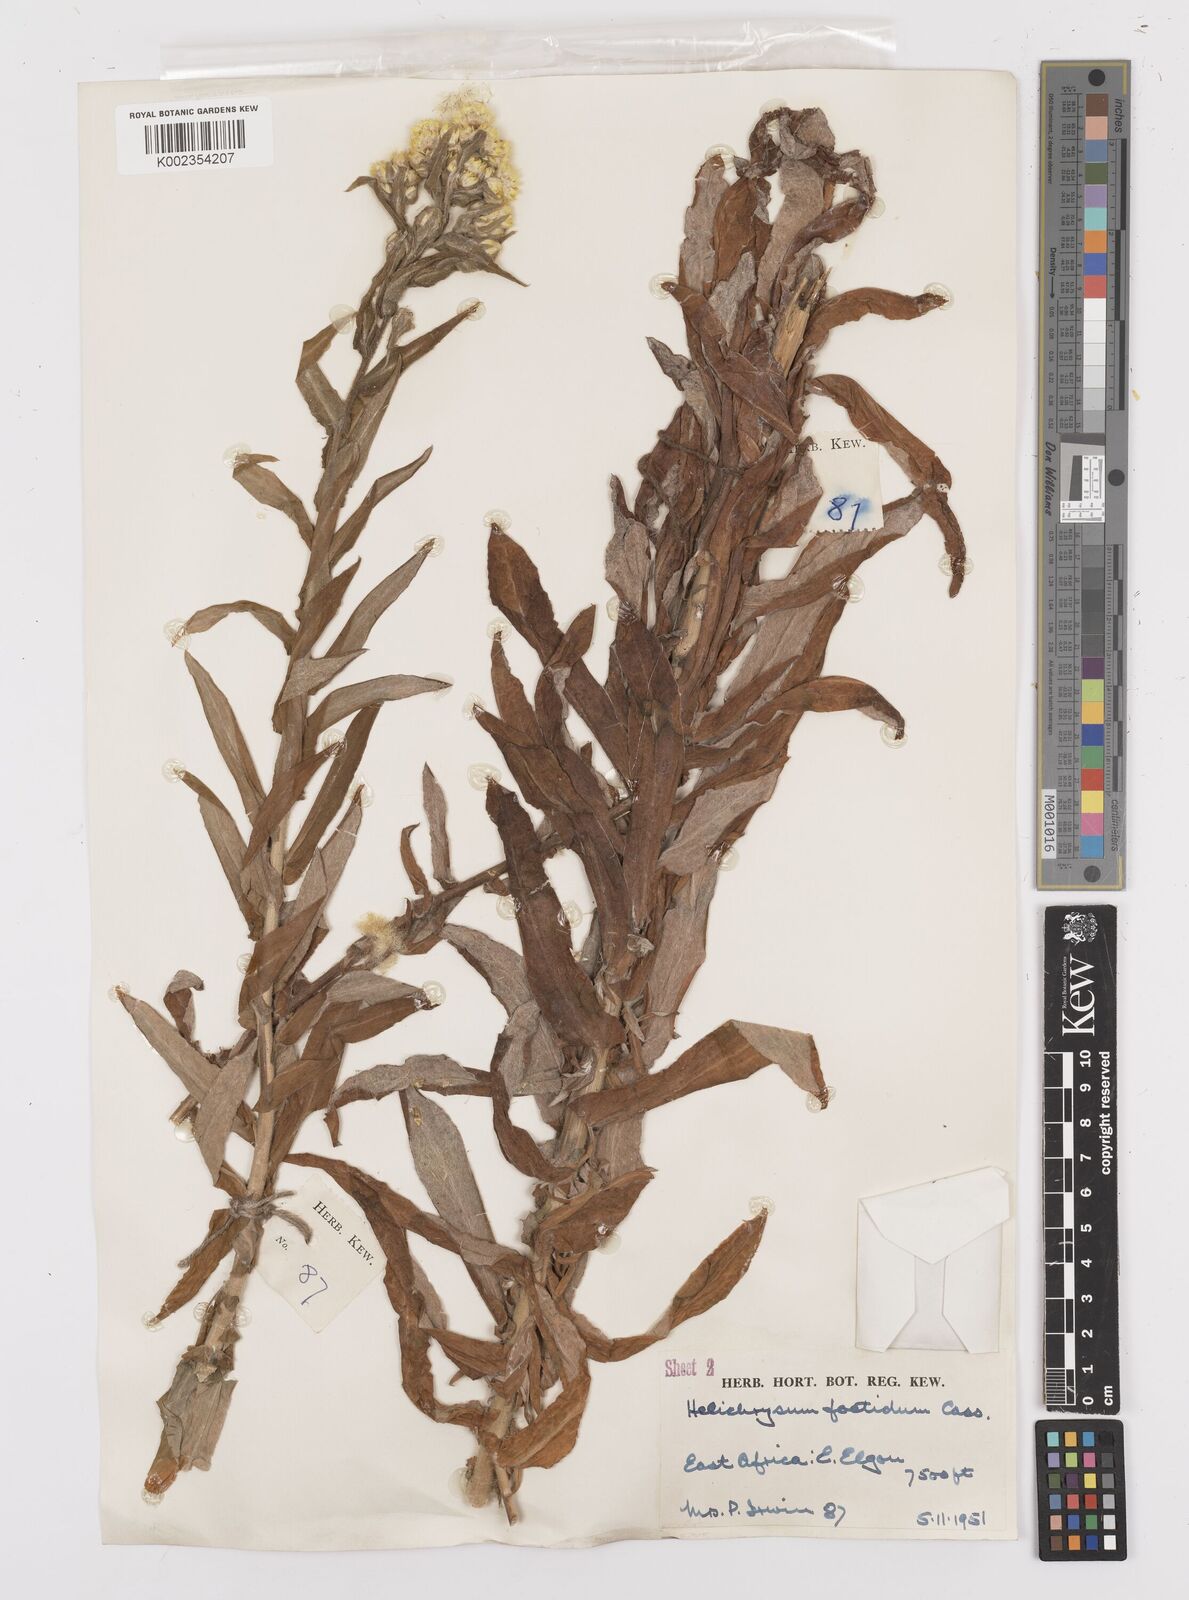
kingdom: Plantae
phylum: Tracheophyta
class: Magnoliopsida
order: Asterales
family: Asteraceae
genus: Helichrysum
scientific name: Helichrysum
